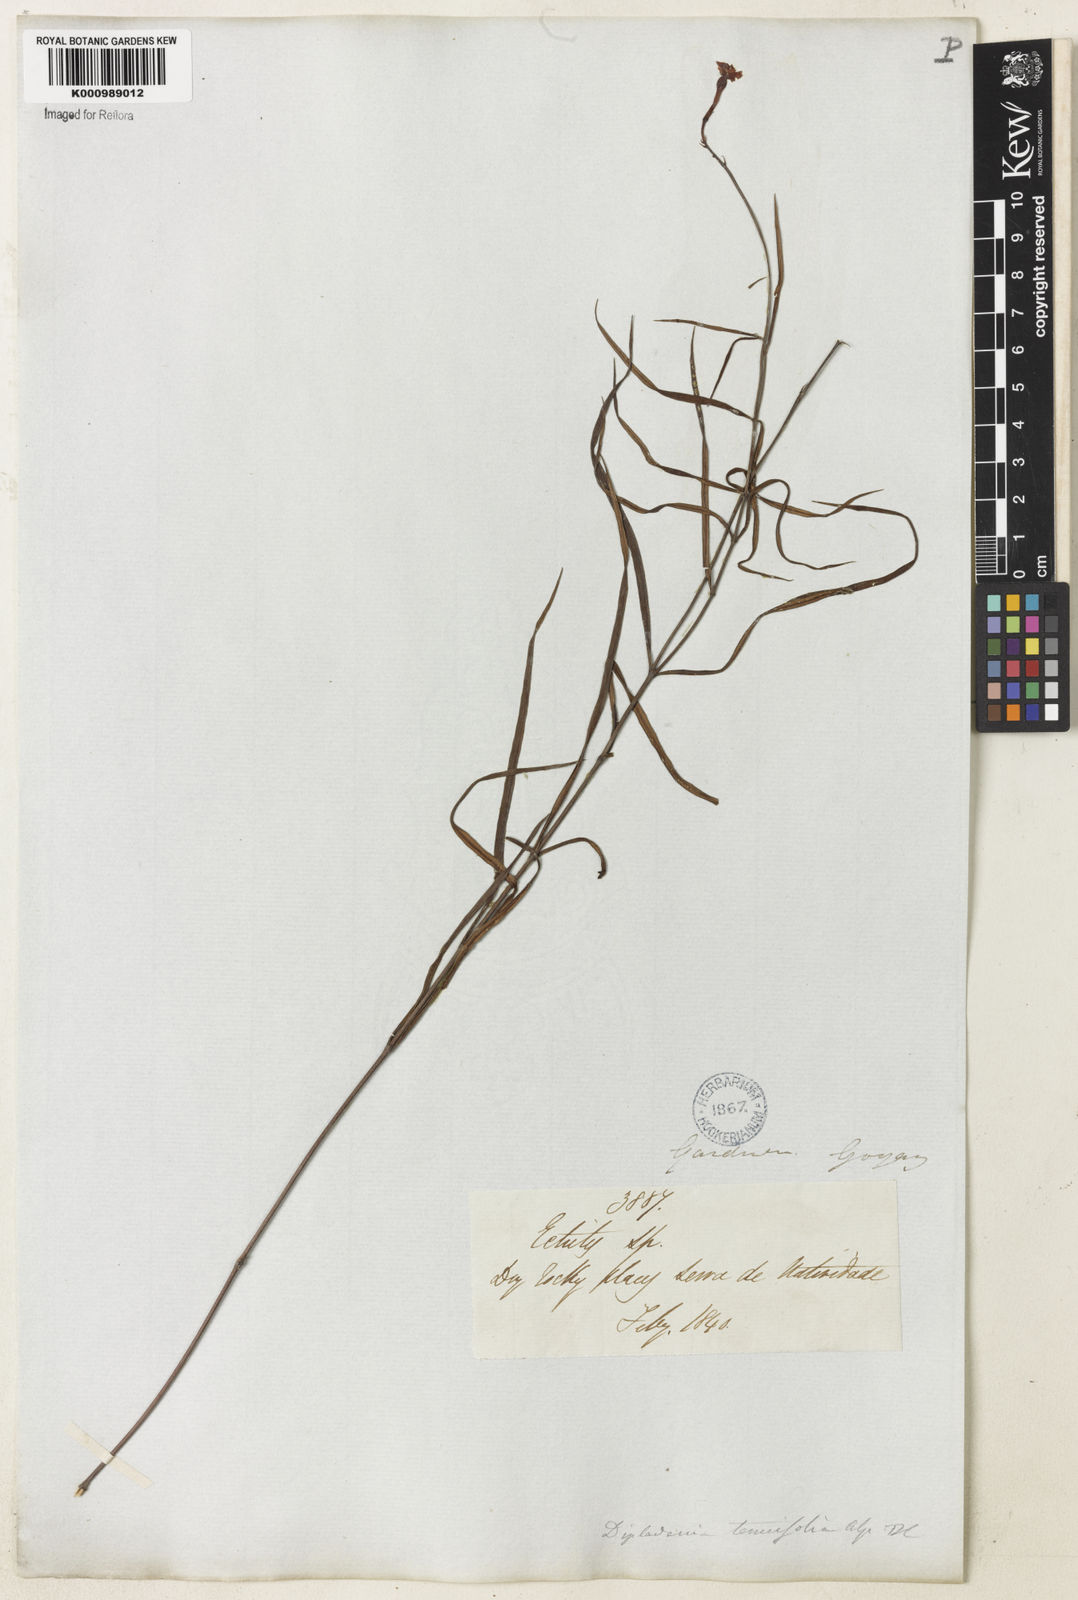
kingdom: Plantae
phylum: Tracheophyta
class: Magnoliopsida
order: Gentianales
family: Apocynaceae
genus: Mandevilla
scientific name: Mandevilla tenuifolia
